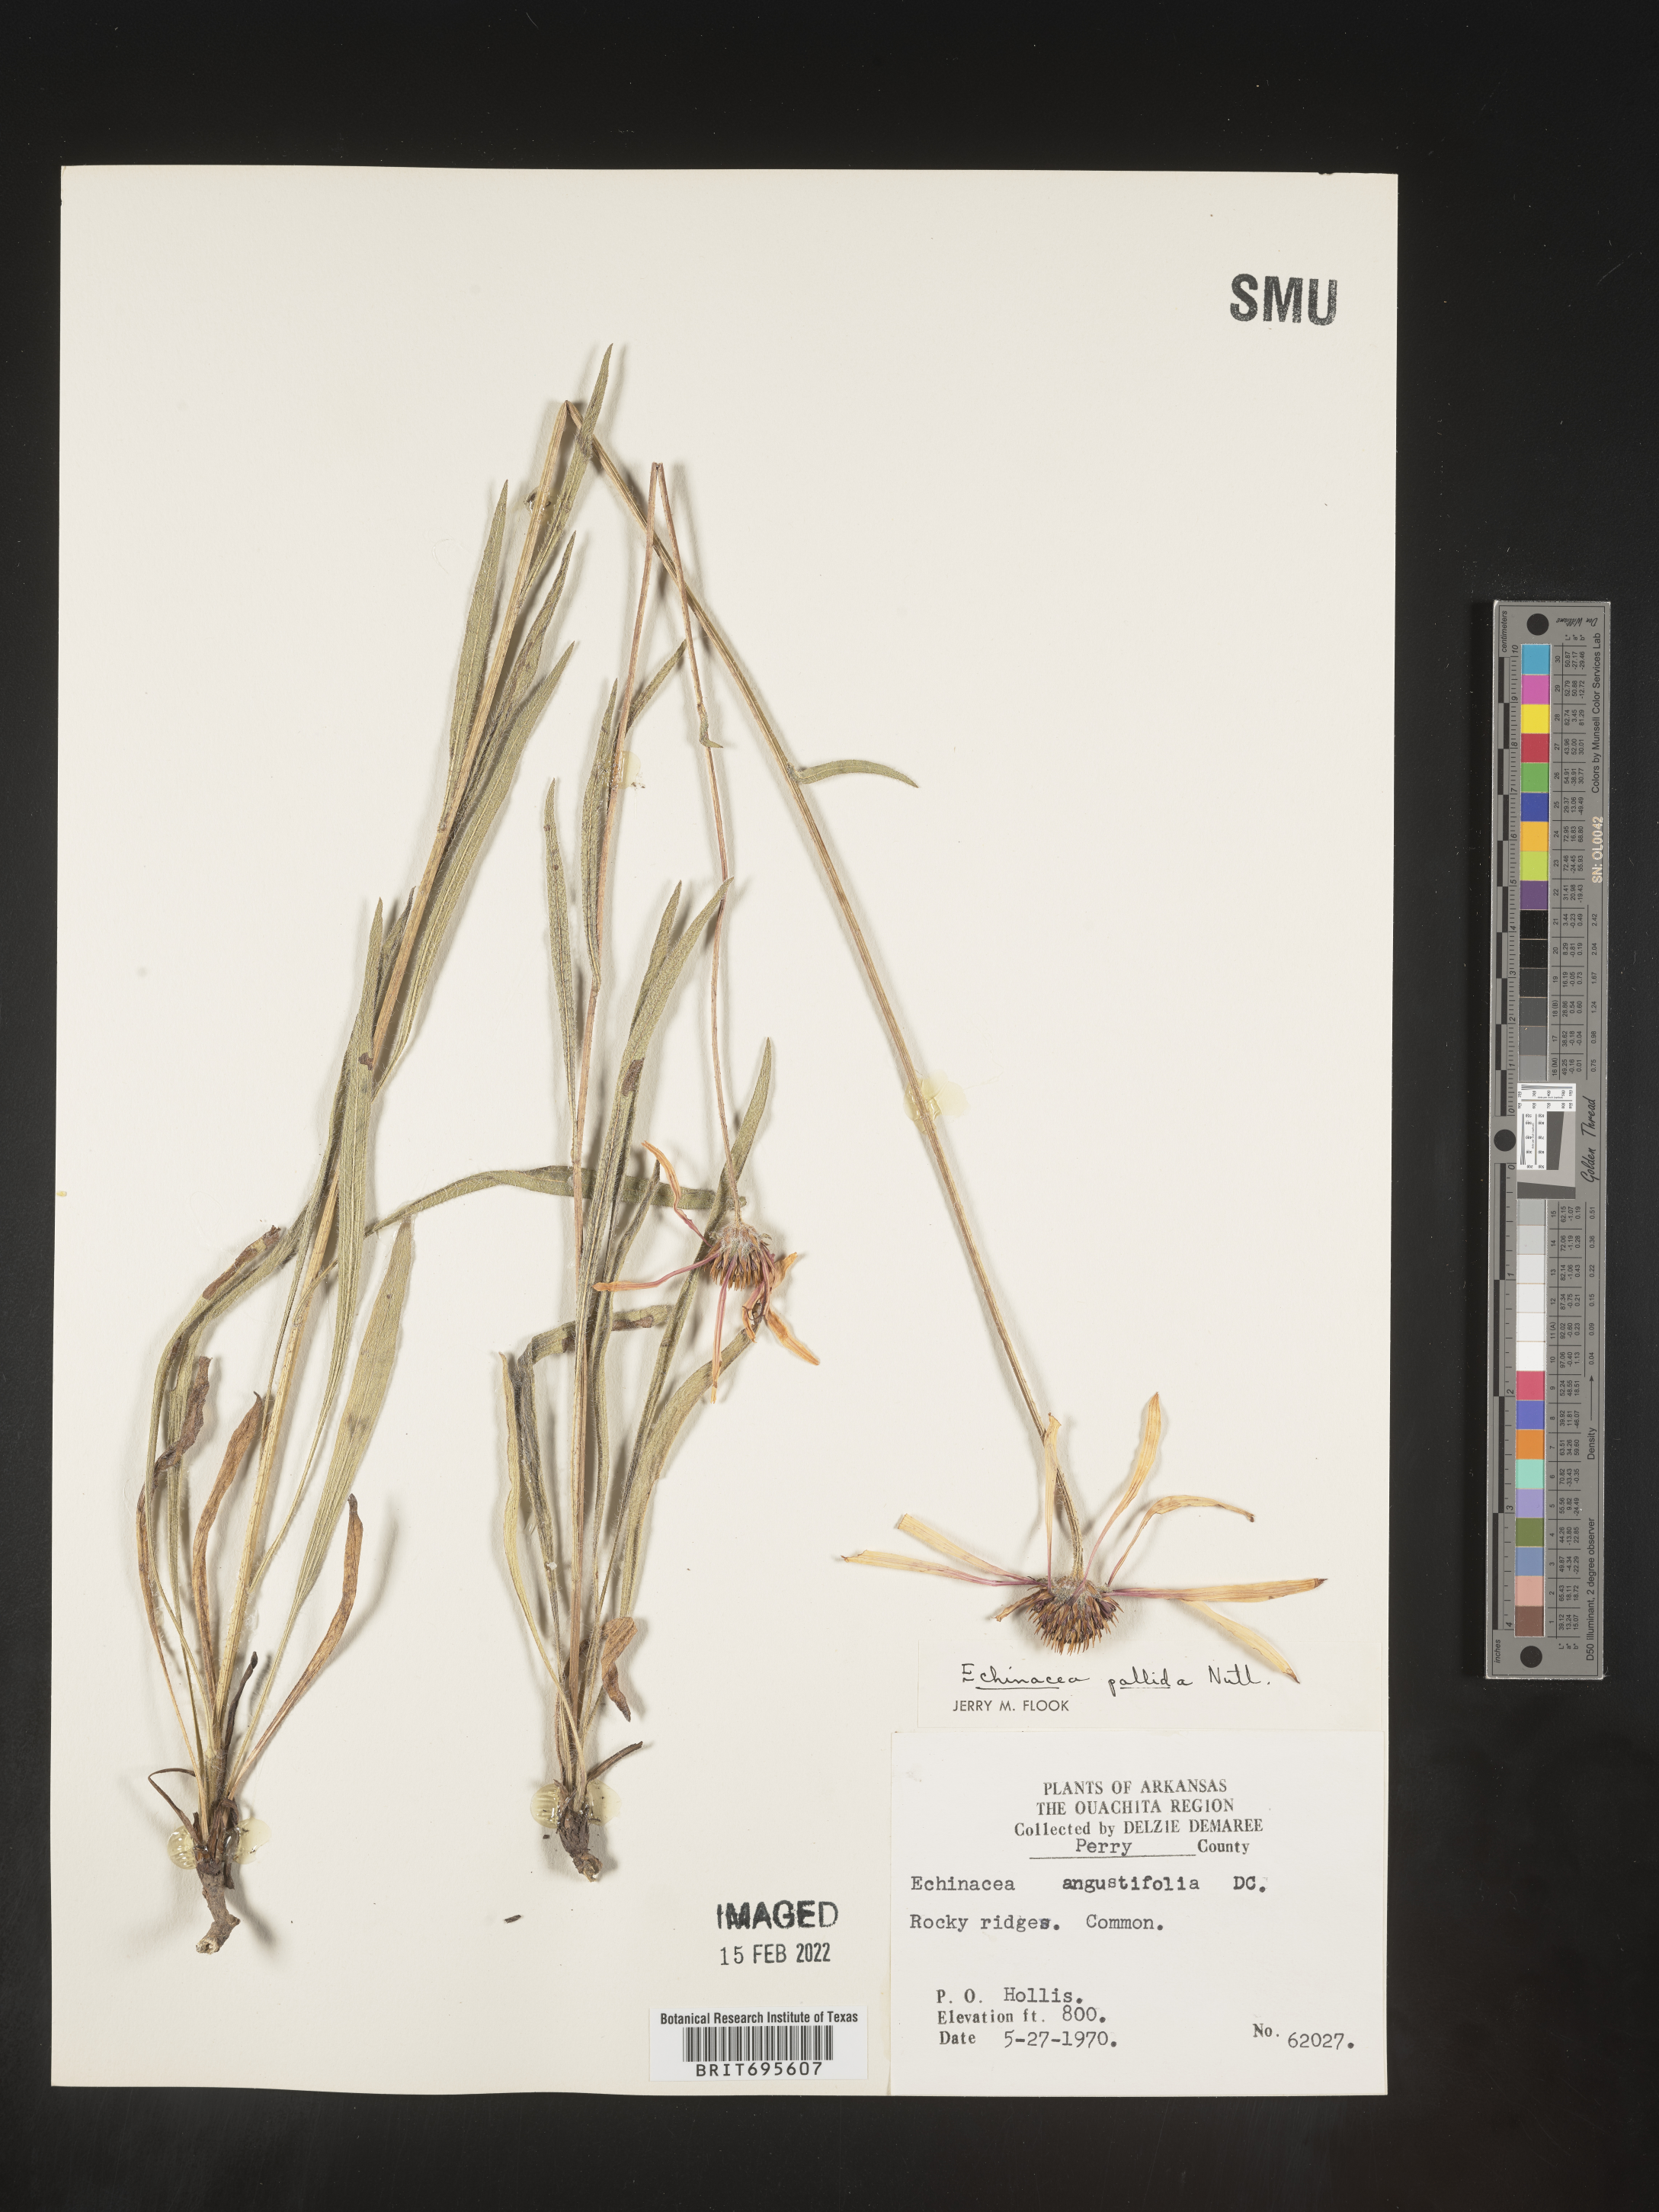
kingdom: Plantae
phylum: Tracheophyta
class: Magnoliopsida
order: Asterales
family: Asteraceae
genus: Echinacea
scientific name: Echinacea pallida
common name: Pale echinacea
